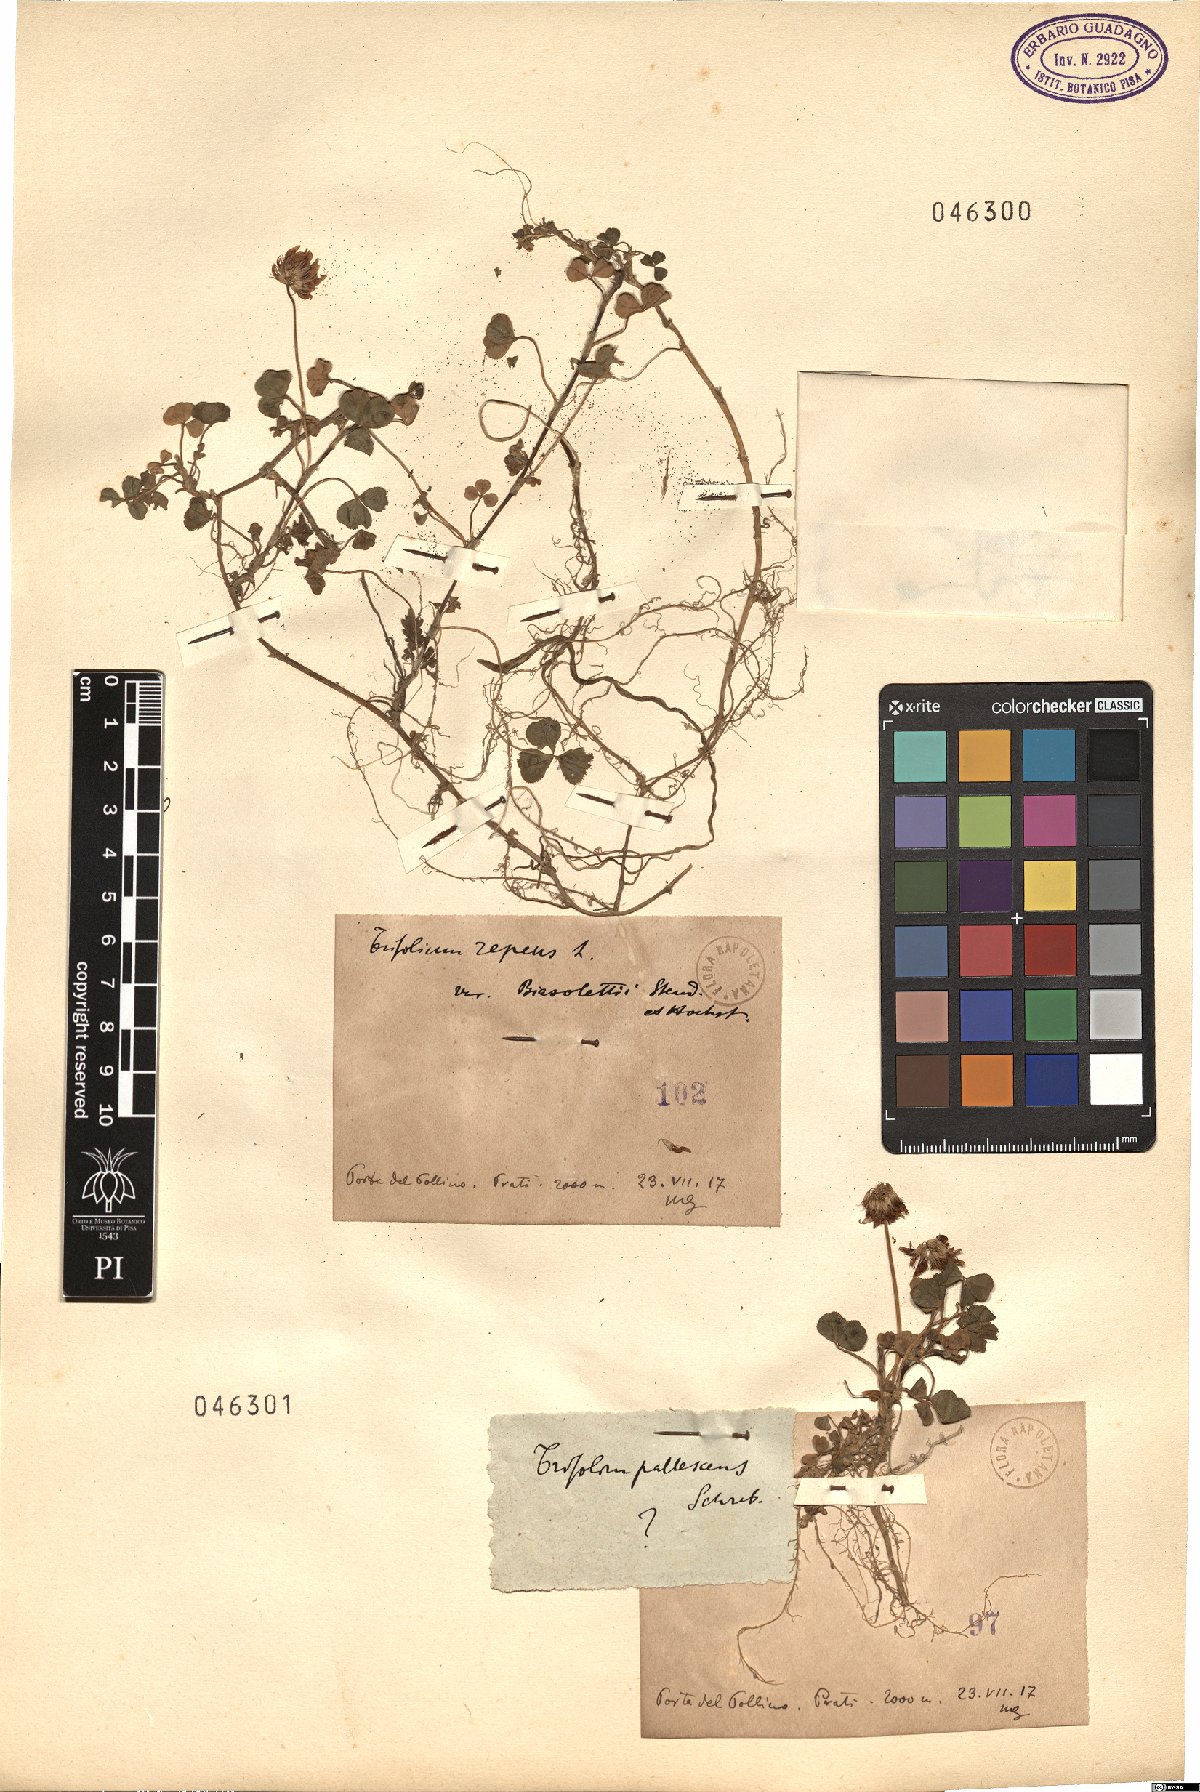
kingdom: Plantae
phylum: Tracheophyta
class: Magnoliopsida
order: Fabales
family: Fabaceae
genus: Trifolium
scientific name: Trifolium pallescens
